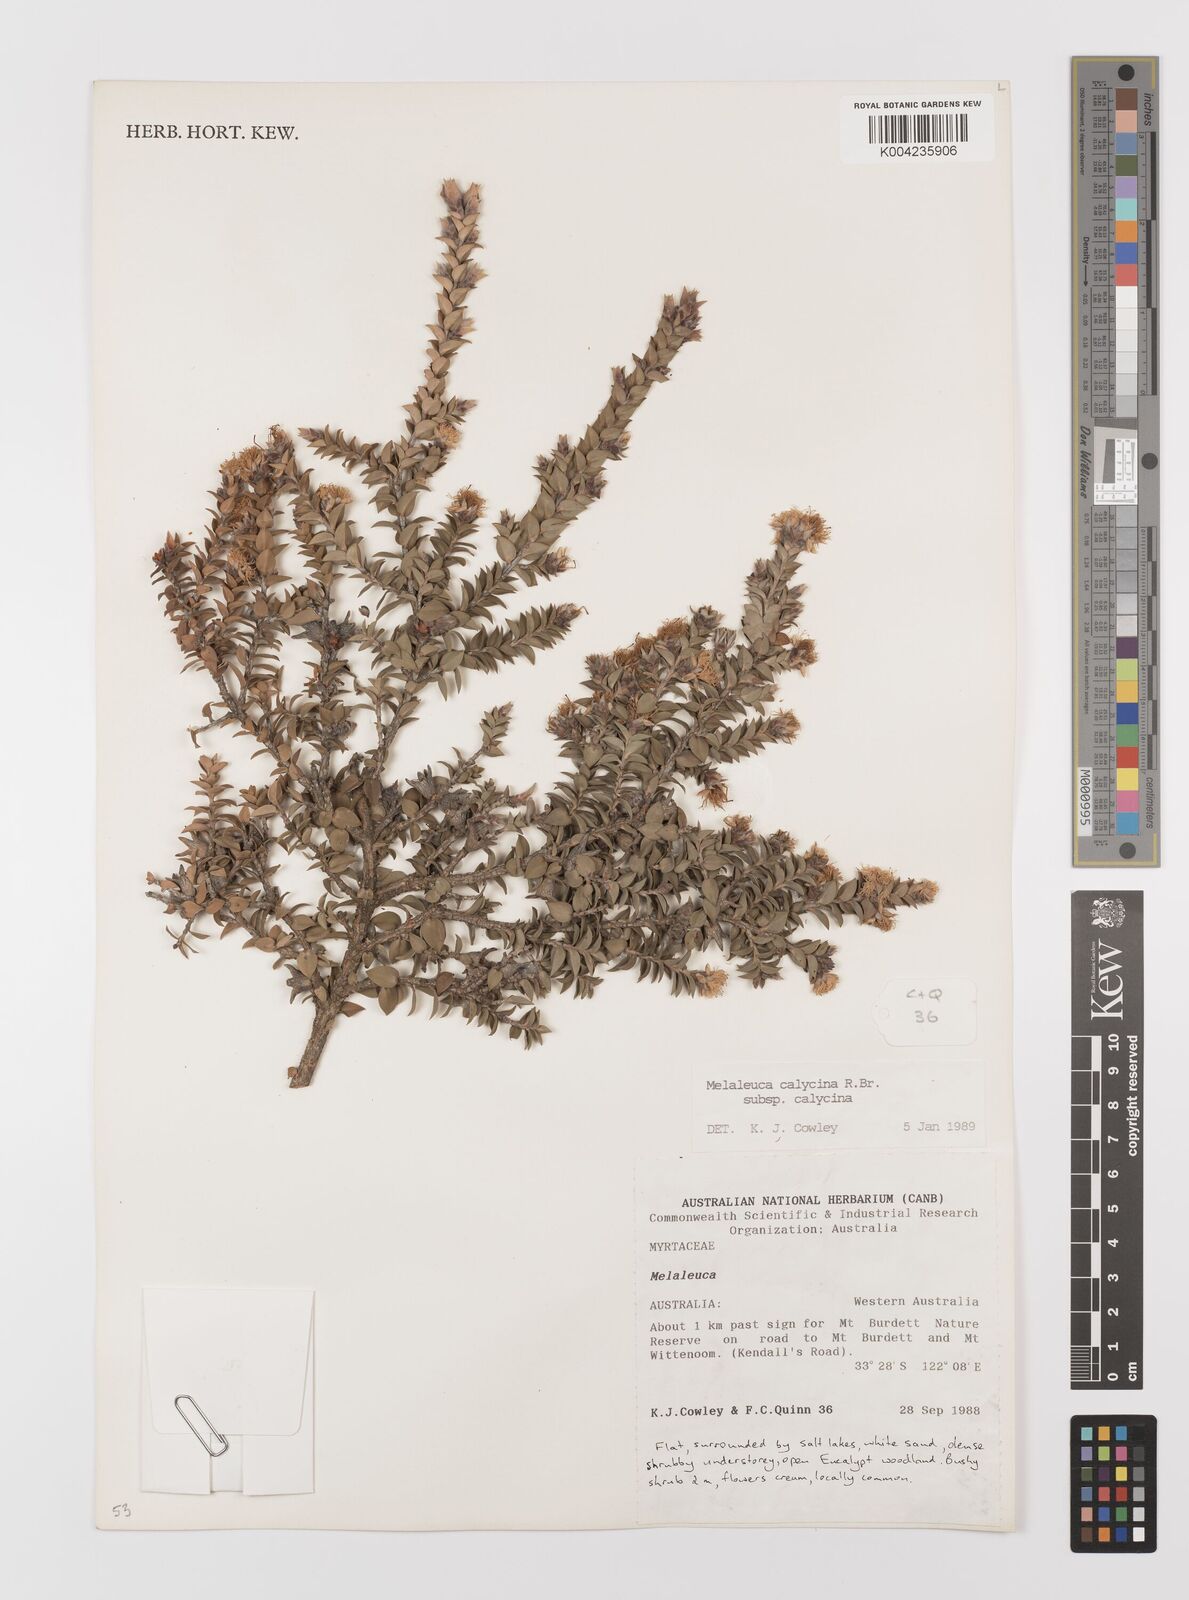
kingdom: Plantae
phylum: Tracheophyta
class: Magnoliopsida
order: Myrtales
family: Myrtaceae
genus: Melaleuca
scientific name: Melaleuca calycina
